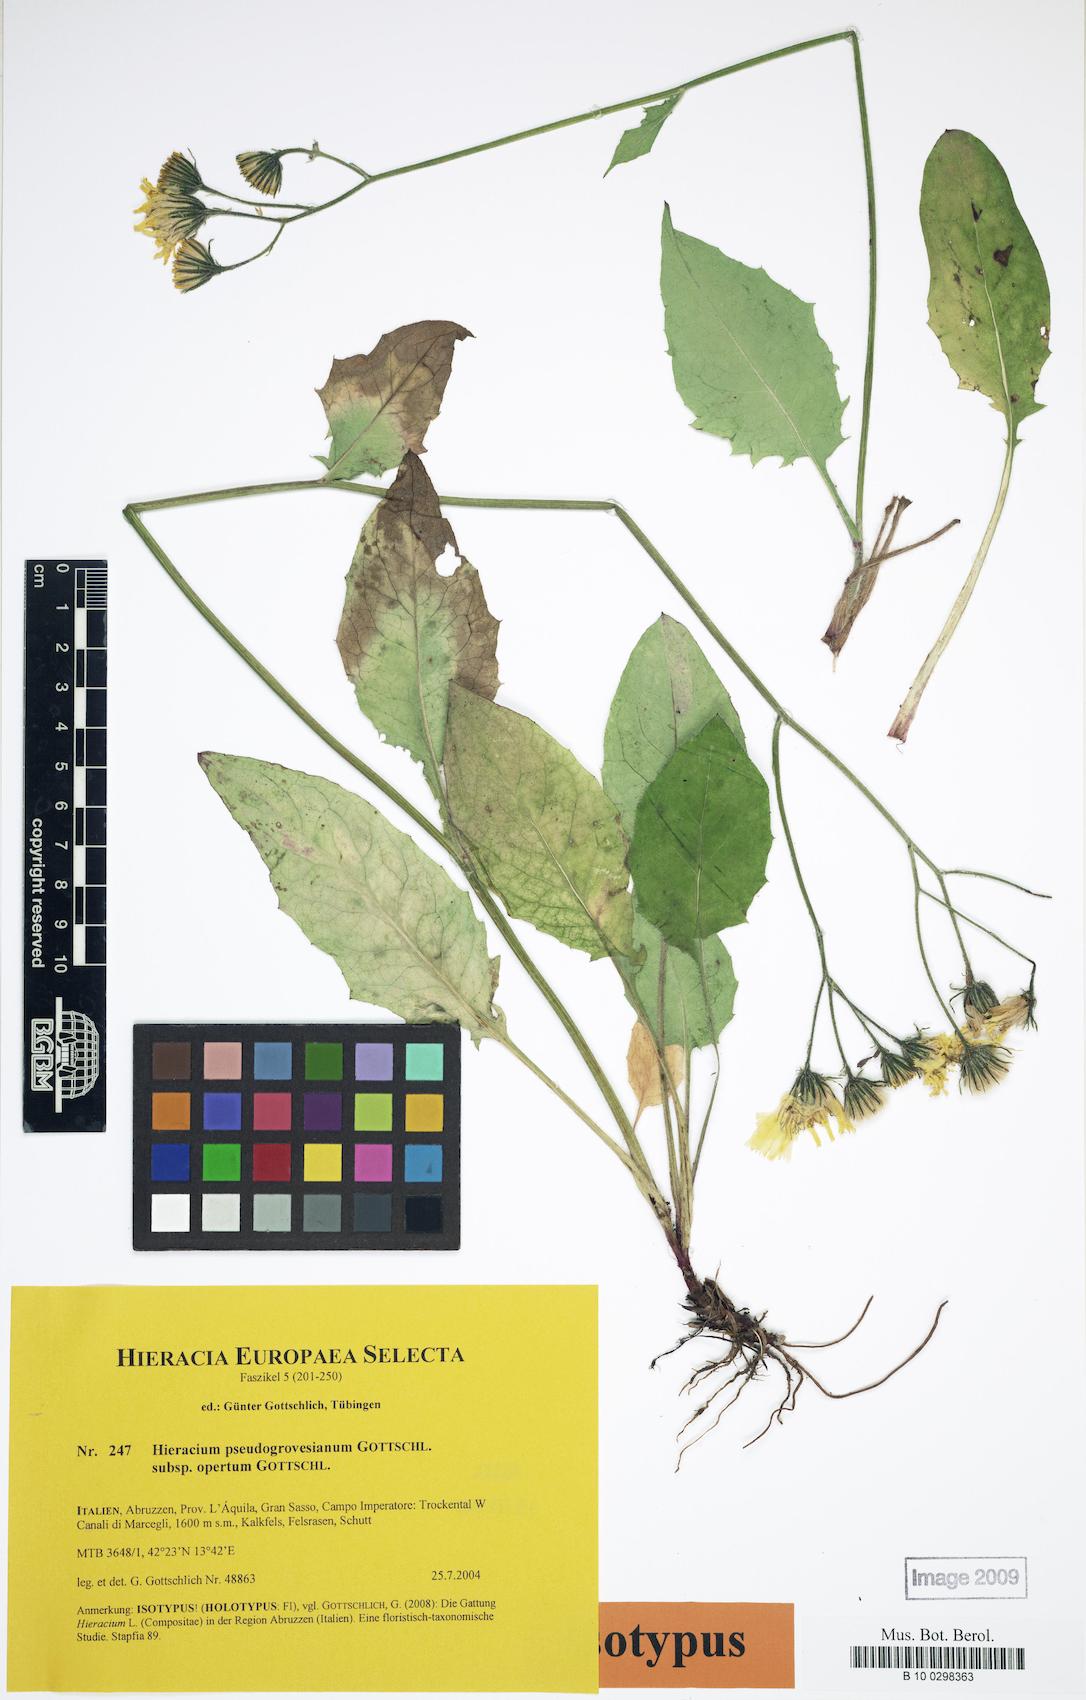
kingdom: Plantae
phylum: Tracheophyta
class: Magnoliopsida
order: Asterales
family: Asteraceae
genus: Hieracium
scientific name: Hieracium pseudogrovesianum
